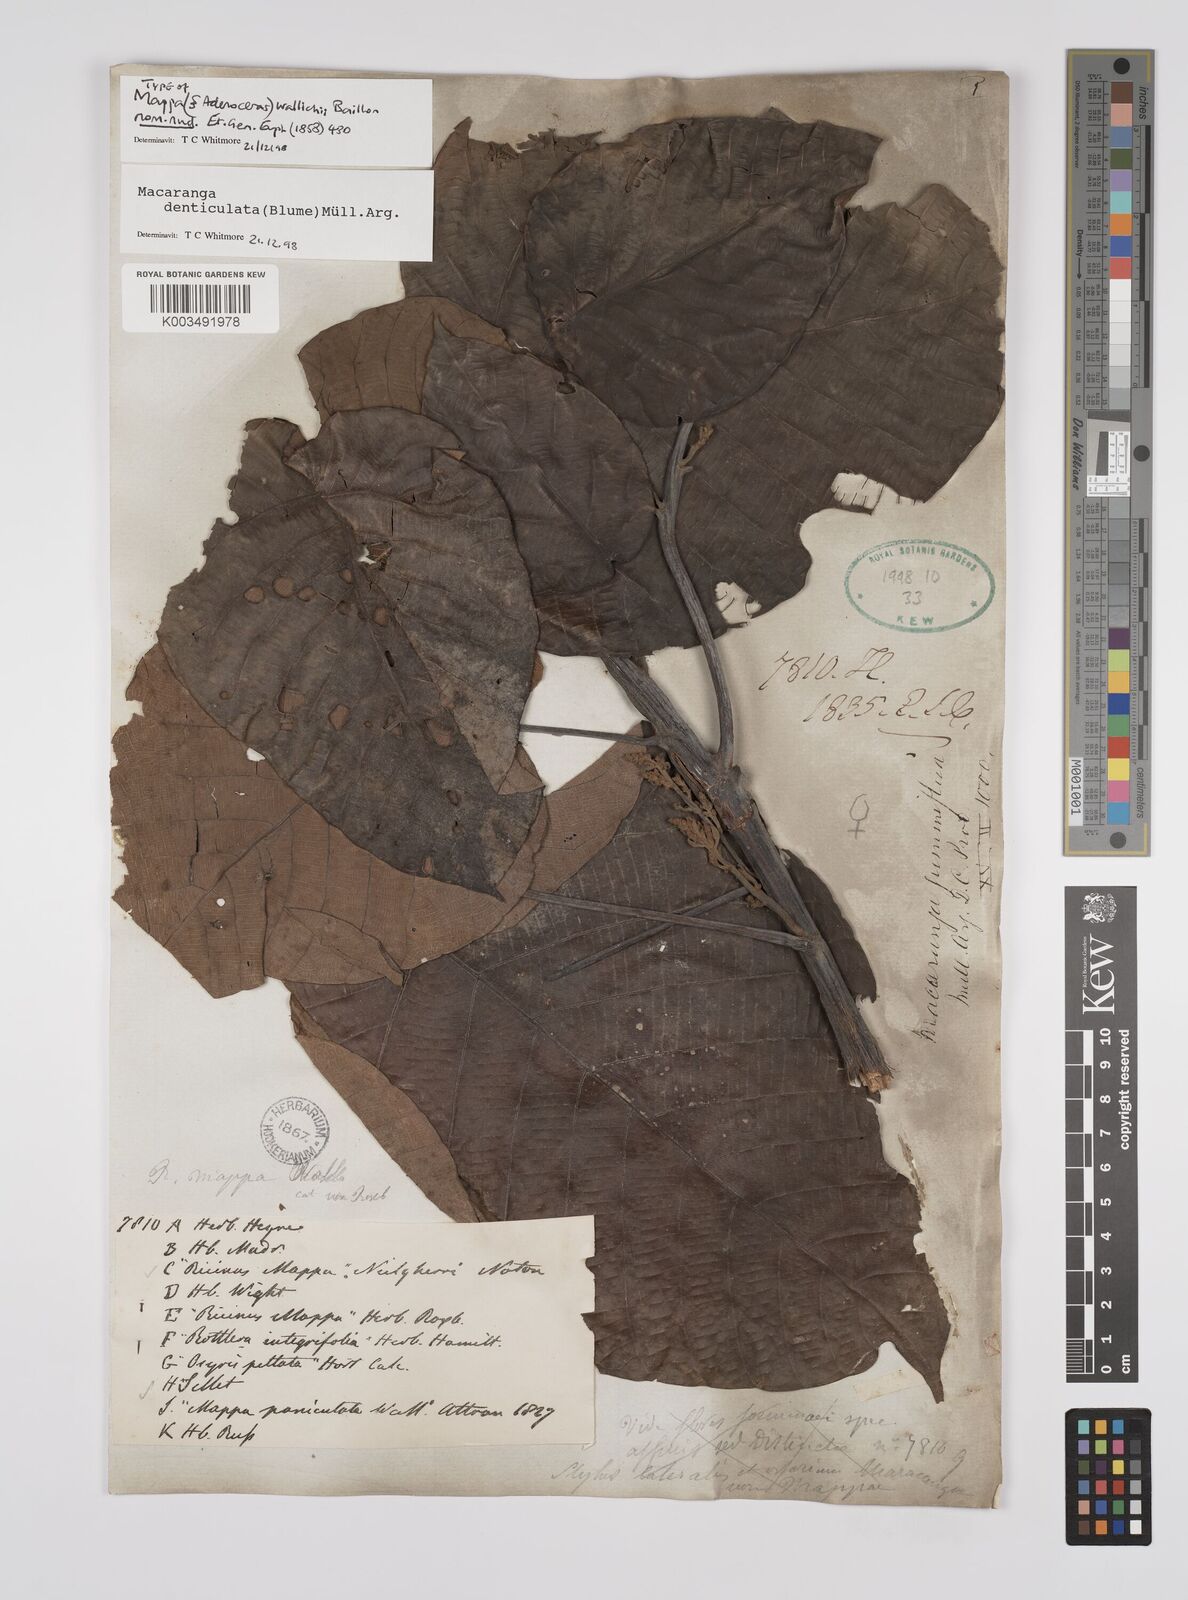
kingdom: Plantae
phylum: Tracheophyta
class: Magnoliopsida
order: Malpighiales
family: Euphorbiaceae
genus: Macaranga
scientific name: Macaranga denticulata
